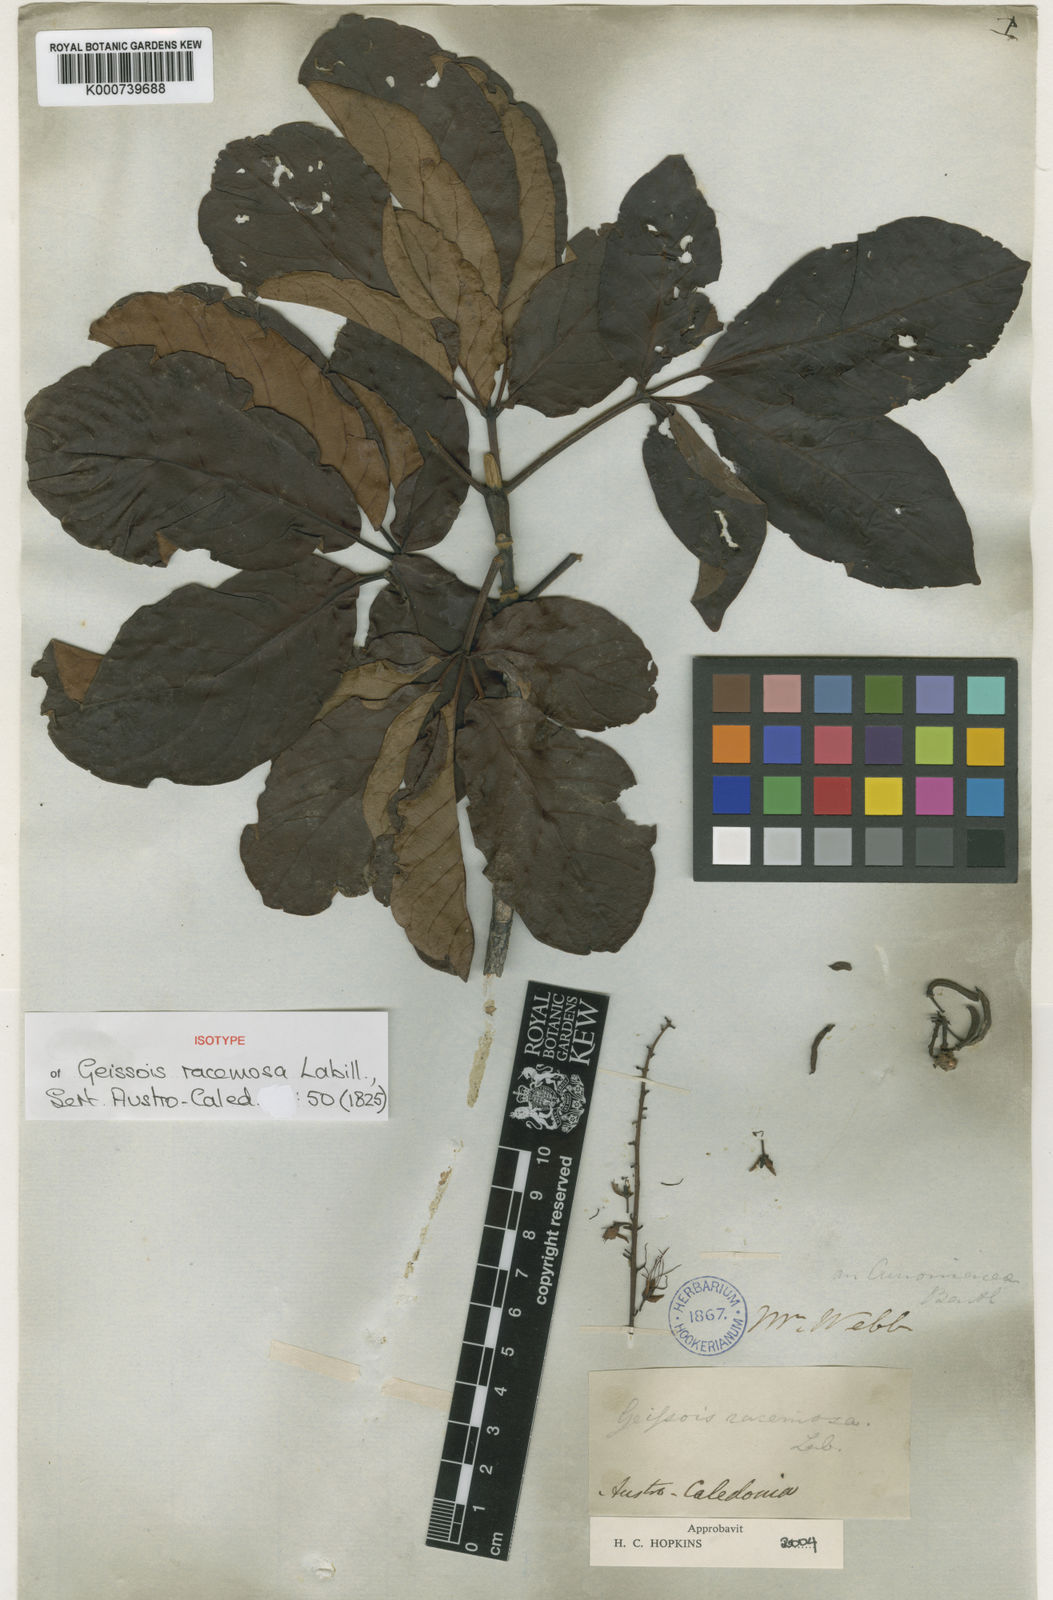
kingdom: Plantae
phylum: Tracheophyta
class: Magnoliopsida
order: Oxalidales
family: Cunoniaceae
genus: Geissois
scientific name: Geissois imthurnii
